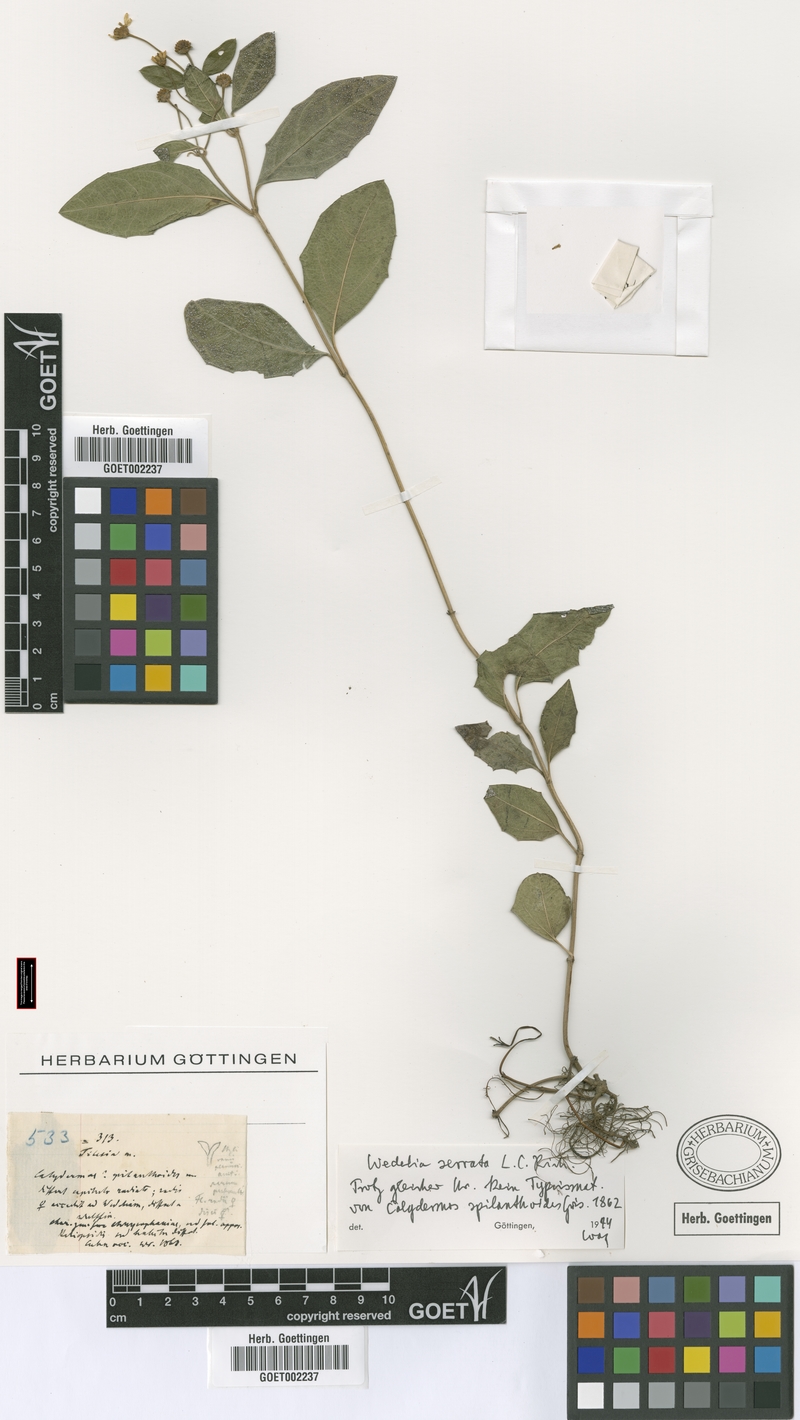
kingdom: Plantae
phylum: Tracheophyta
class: Magnoliopsida
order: Asterales
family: Asteraceae
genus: Wedelia
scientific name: Wedelia serrata
